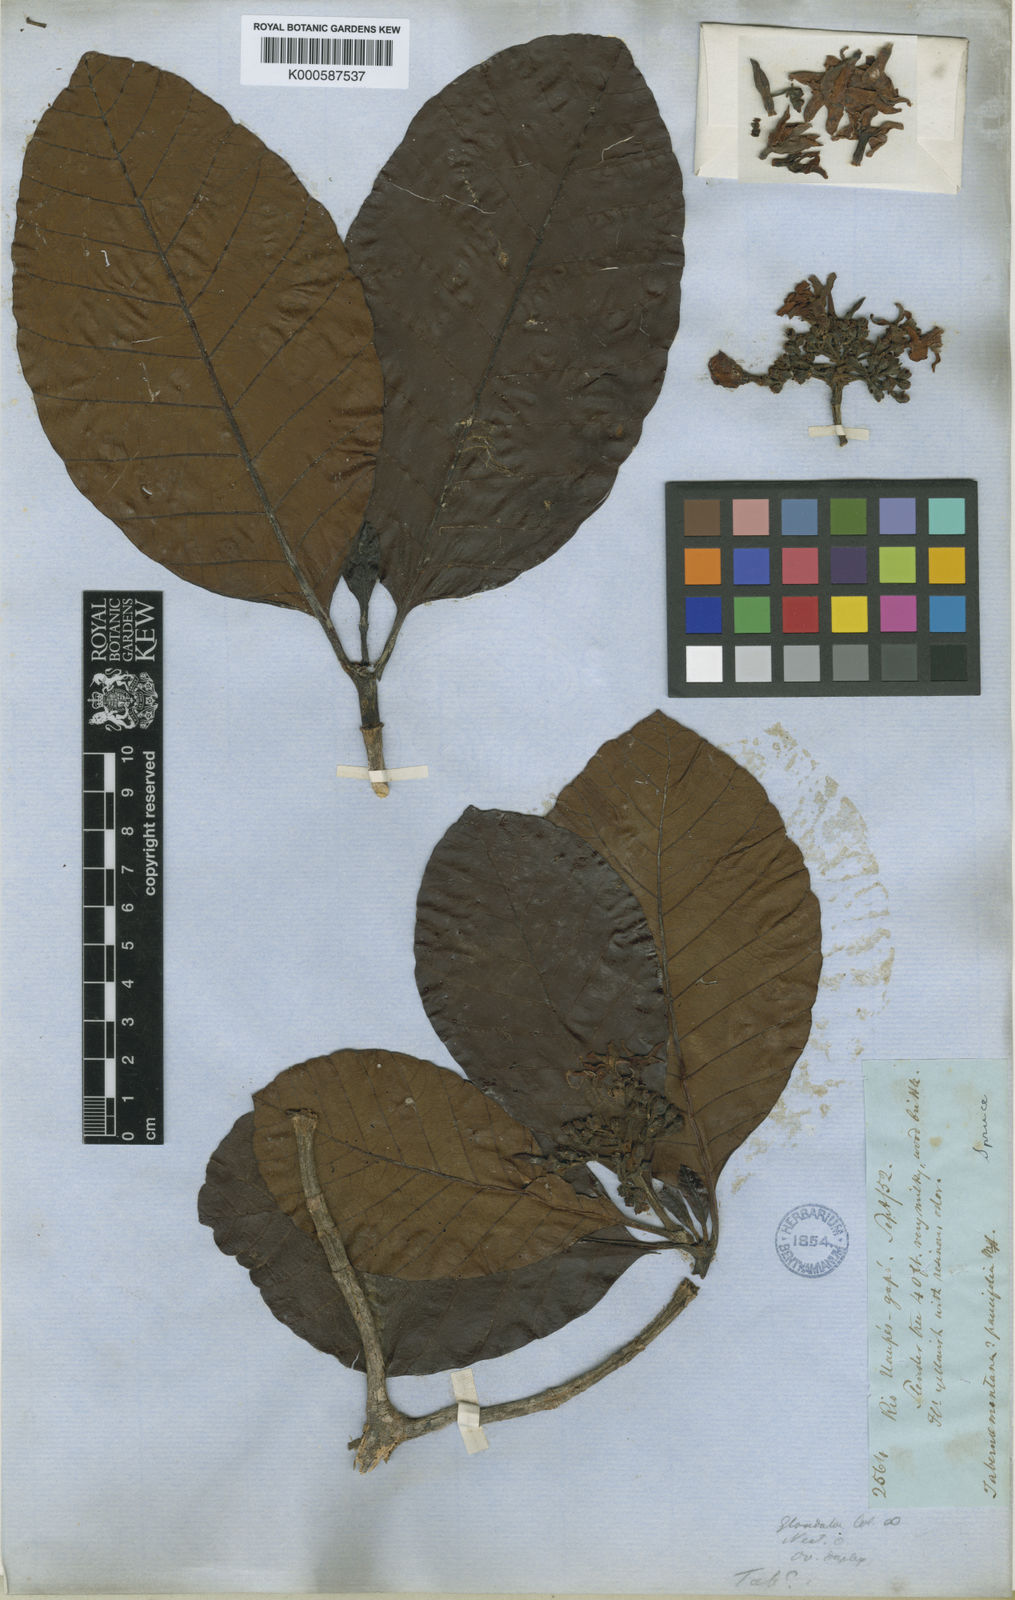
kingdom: Plantae
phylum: Tracheophyta
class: Magnoliopsida
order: Gentianales
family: Apocynaceae
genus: Macoubea
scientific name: Macoubea sprucei
